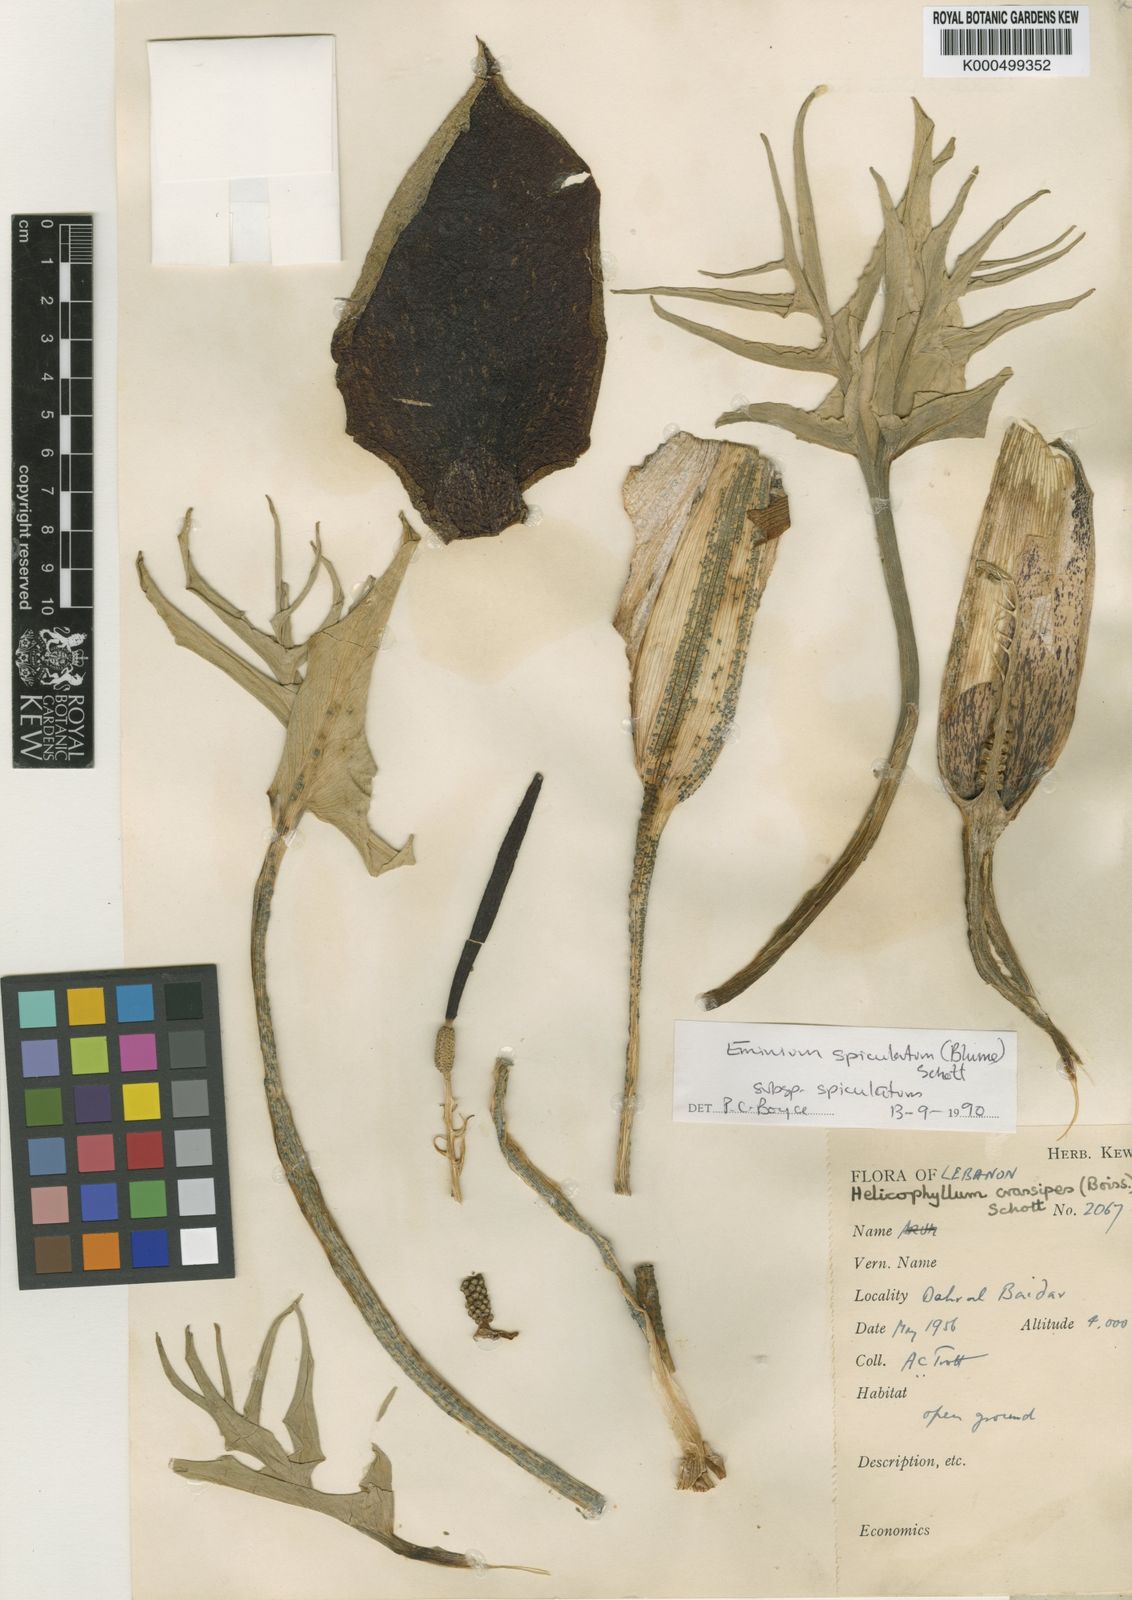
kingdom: Plantae
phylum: Tracheophyta
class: Liliopsida
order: Alismatales
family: Araceae
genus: Eminium
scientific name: Eminium spiculatum
